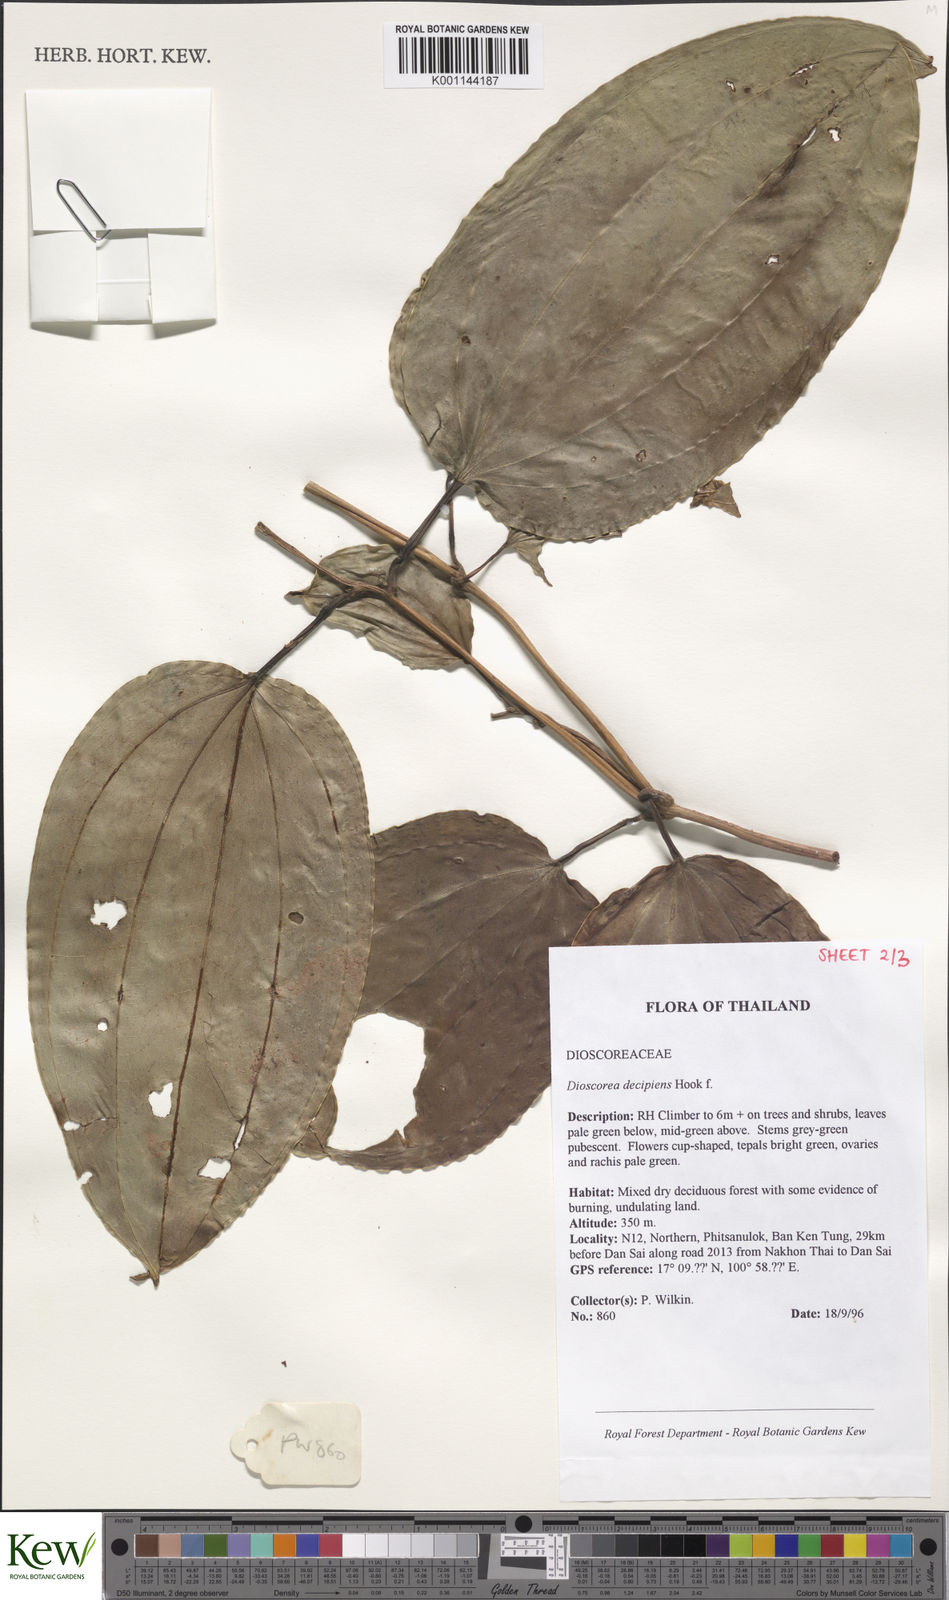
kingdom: Plantae
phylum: Tracheophyta
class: Liliopsida
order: Dioscoreales
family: Dioscoreaceae
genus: Dioscorea
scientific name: Dioscorea decipiens
